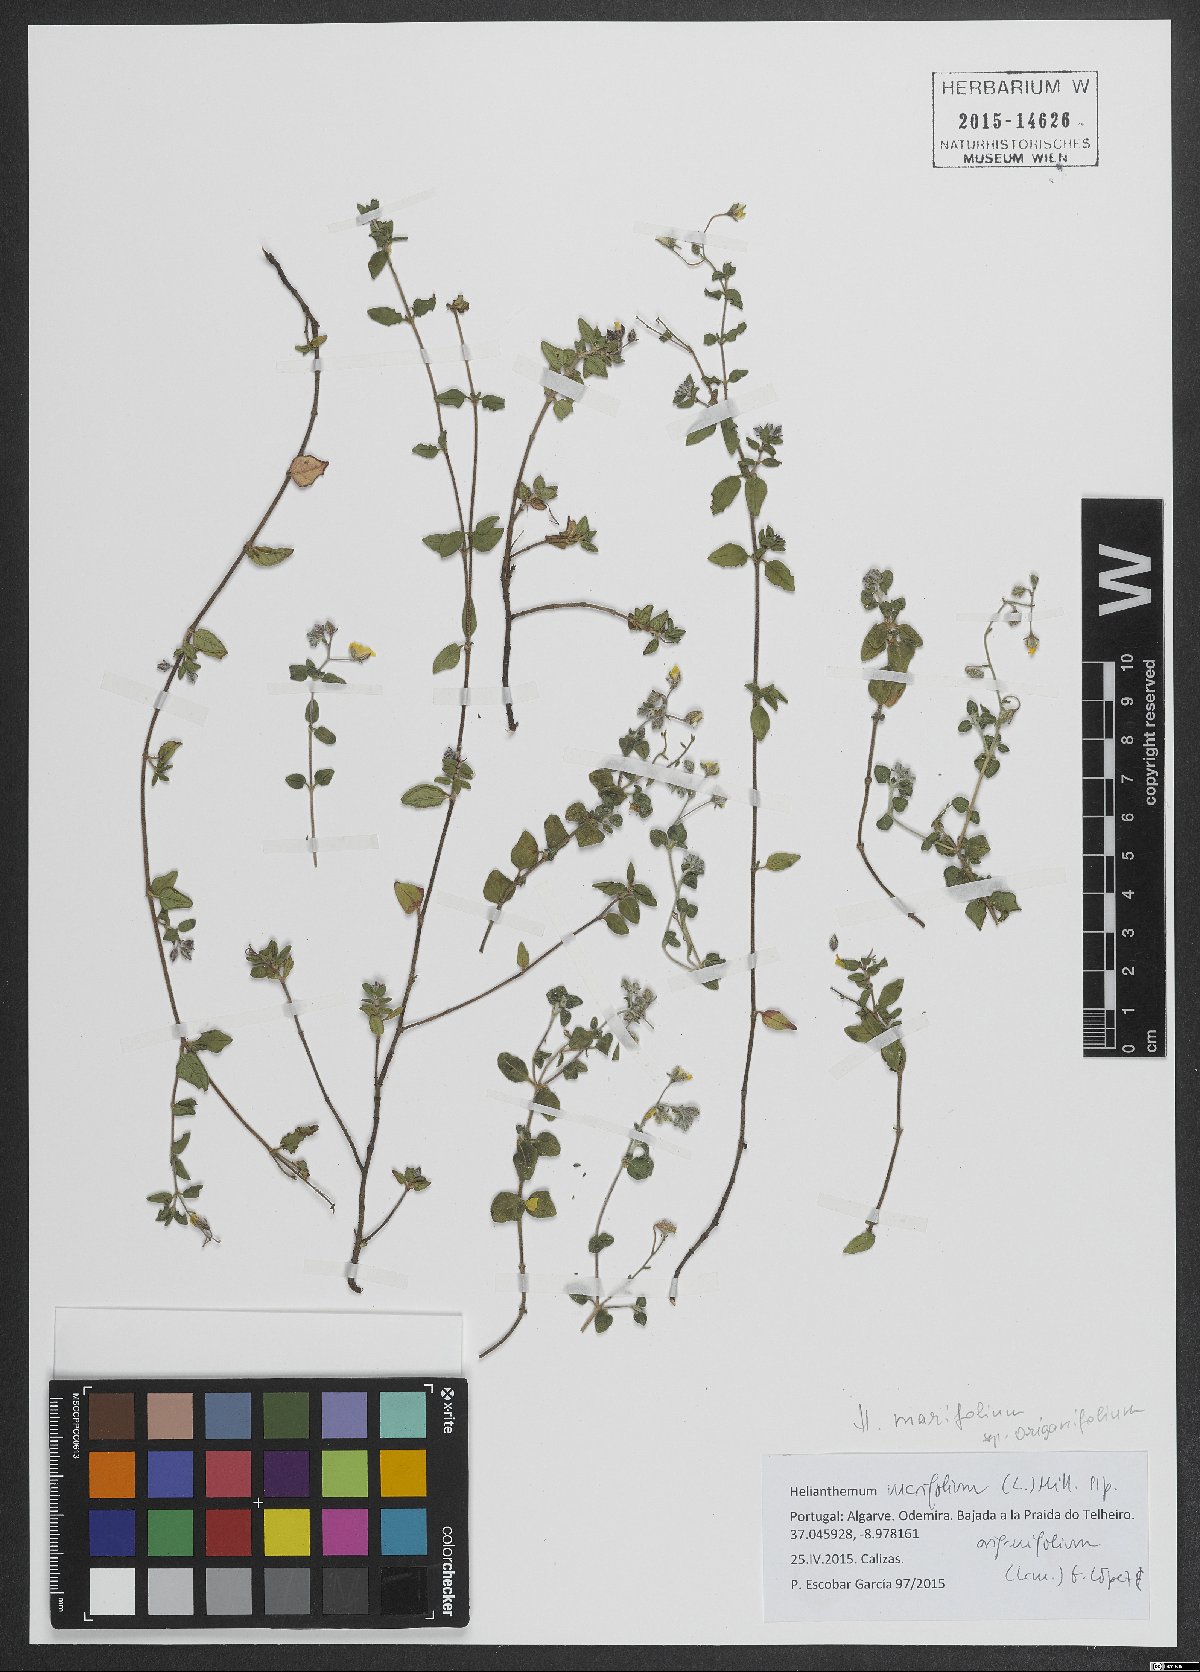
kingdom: Plantae
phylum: Tracheophyta
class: Magnoliopsida
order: Malvales
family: Cistaceae
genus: Helianthemum
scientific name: Helianthemum origanifolium
